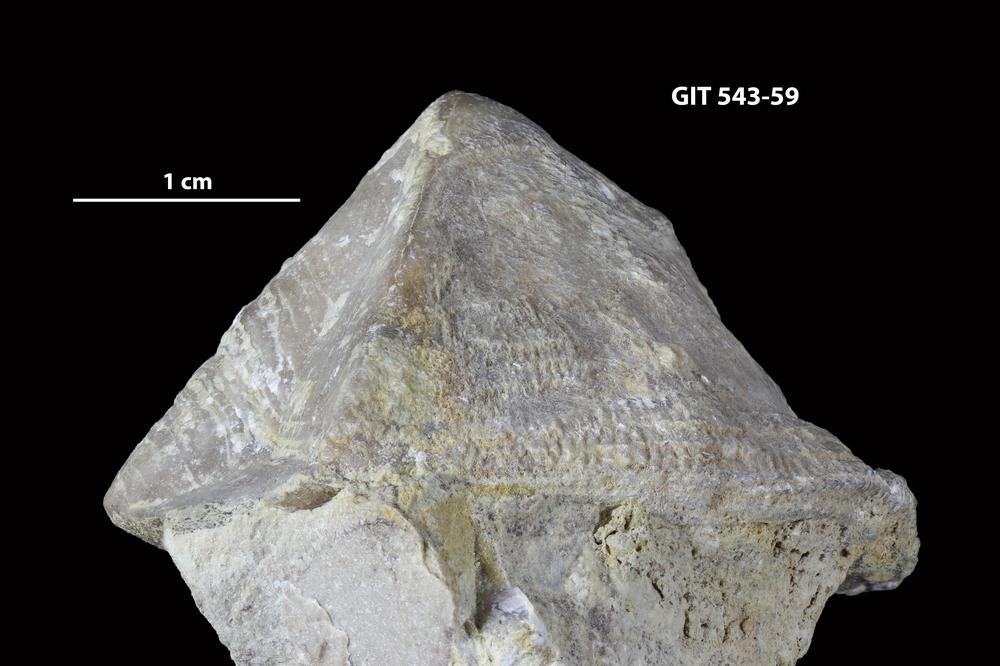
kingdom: Animalia
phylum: Brachiopoda
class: Rhynchonellata
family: Clitambonitidae
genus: Clinambon
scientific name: Clinambon anomalus
